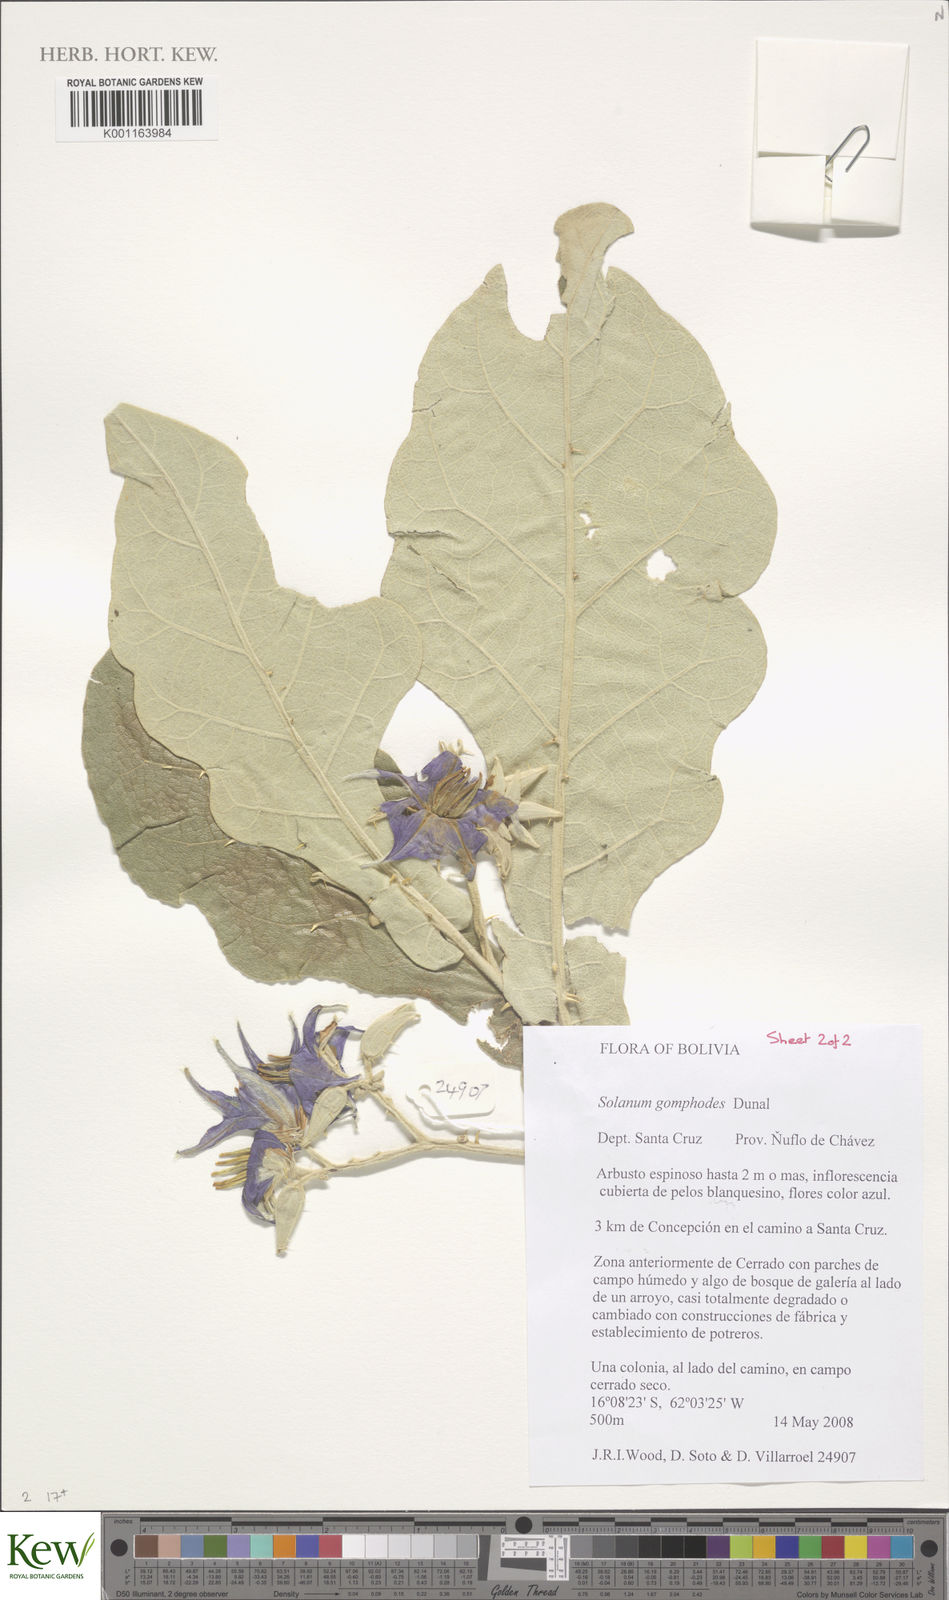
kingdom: Plantae
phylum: Tracheophyta
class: Magnoliopsida
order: Solanales
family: Solanaceae
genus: Solanum
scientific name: Solanum gomphodes
